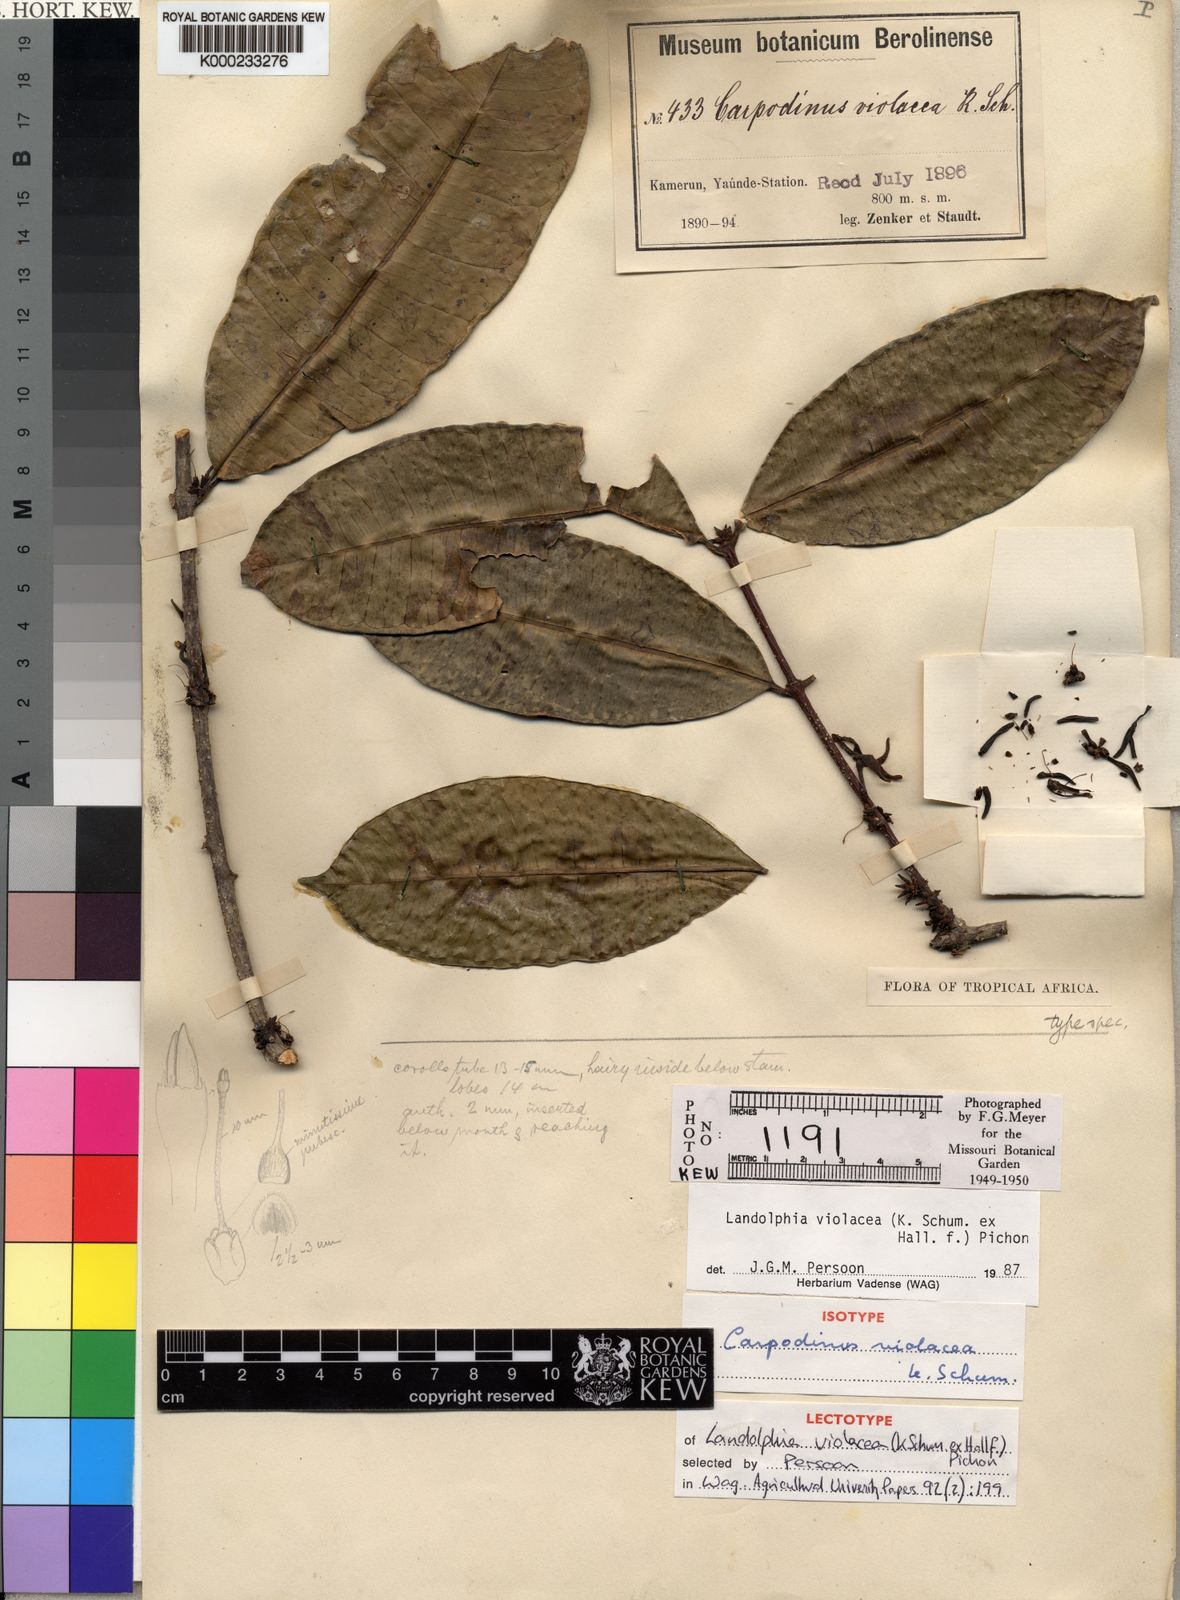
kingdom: Plantae
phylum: Tracheophyta
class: Magnoliopsida
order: Gentianales
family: Apocynaceae
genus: Landolphia
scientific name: Landolphia violacea
